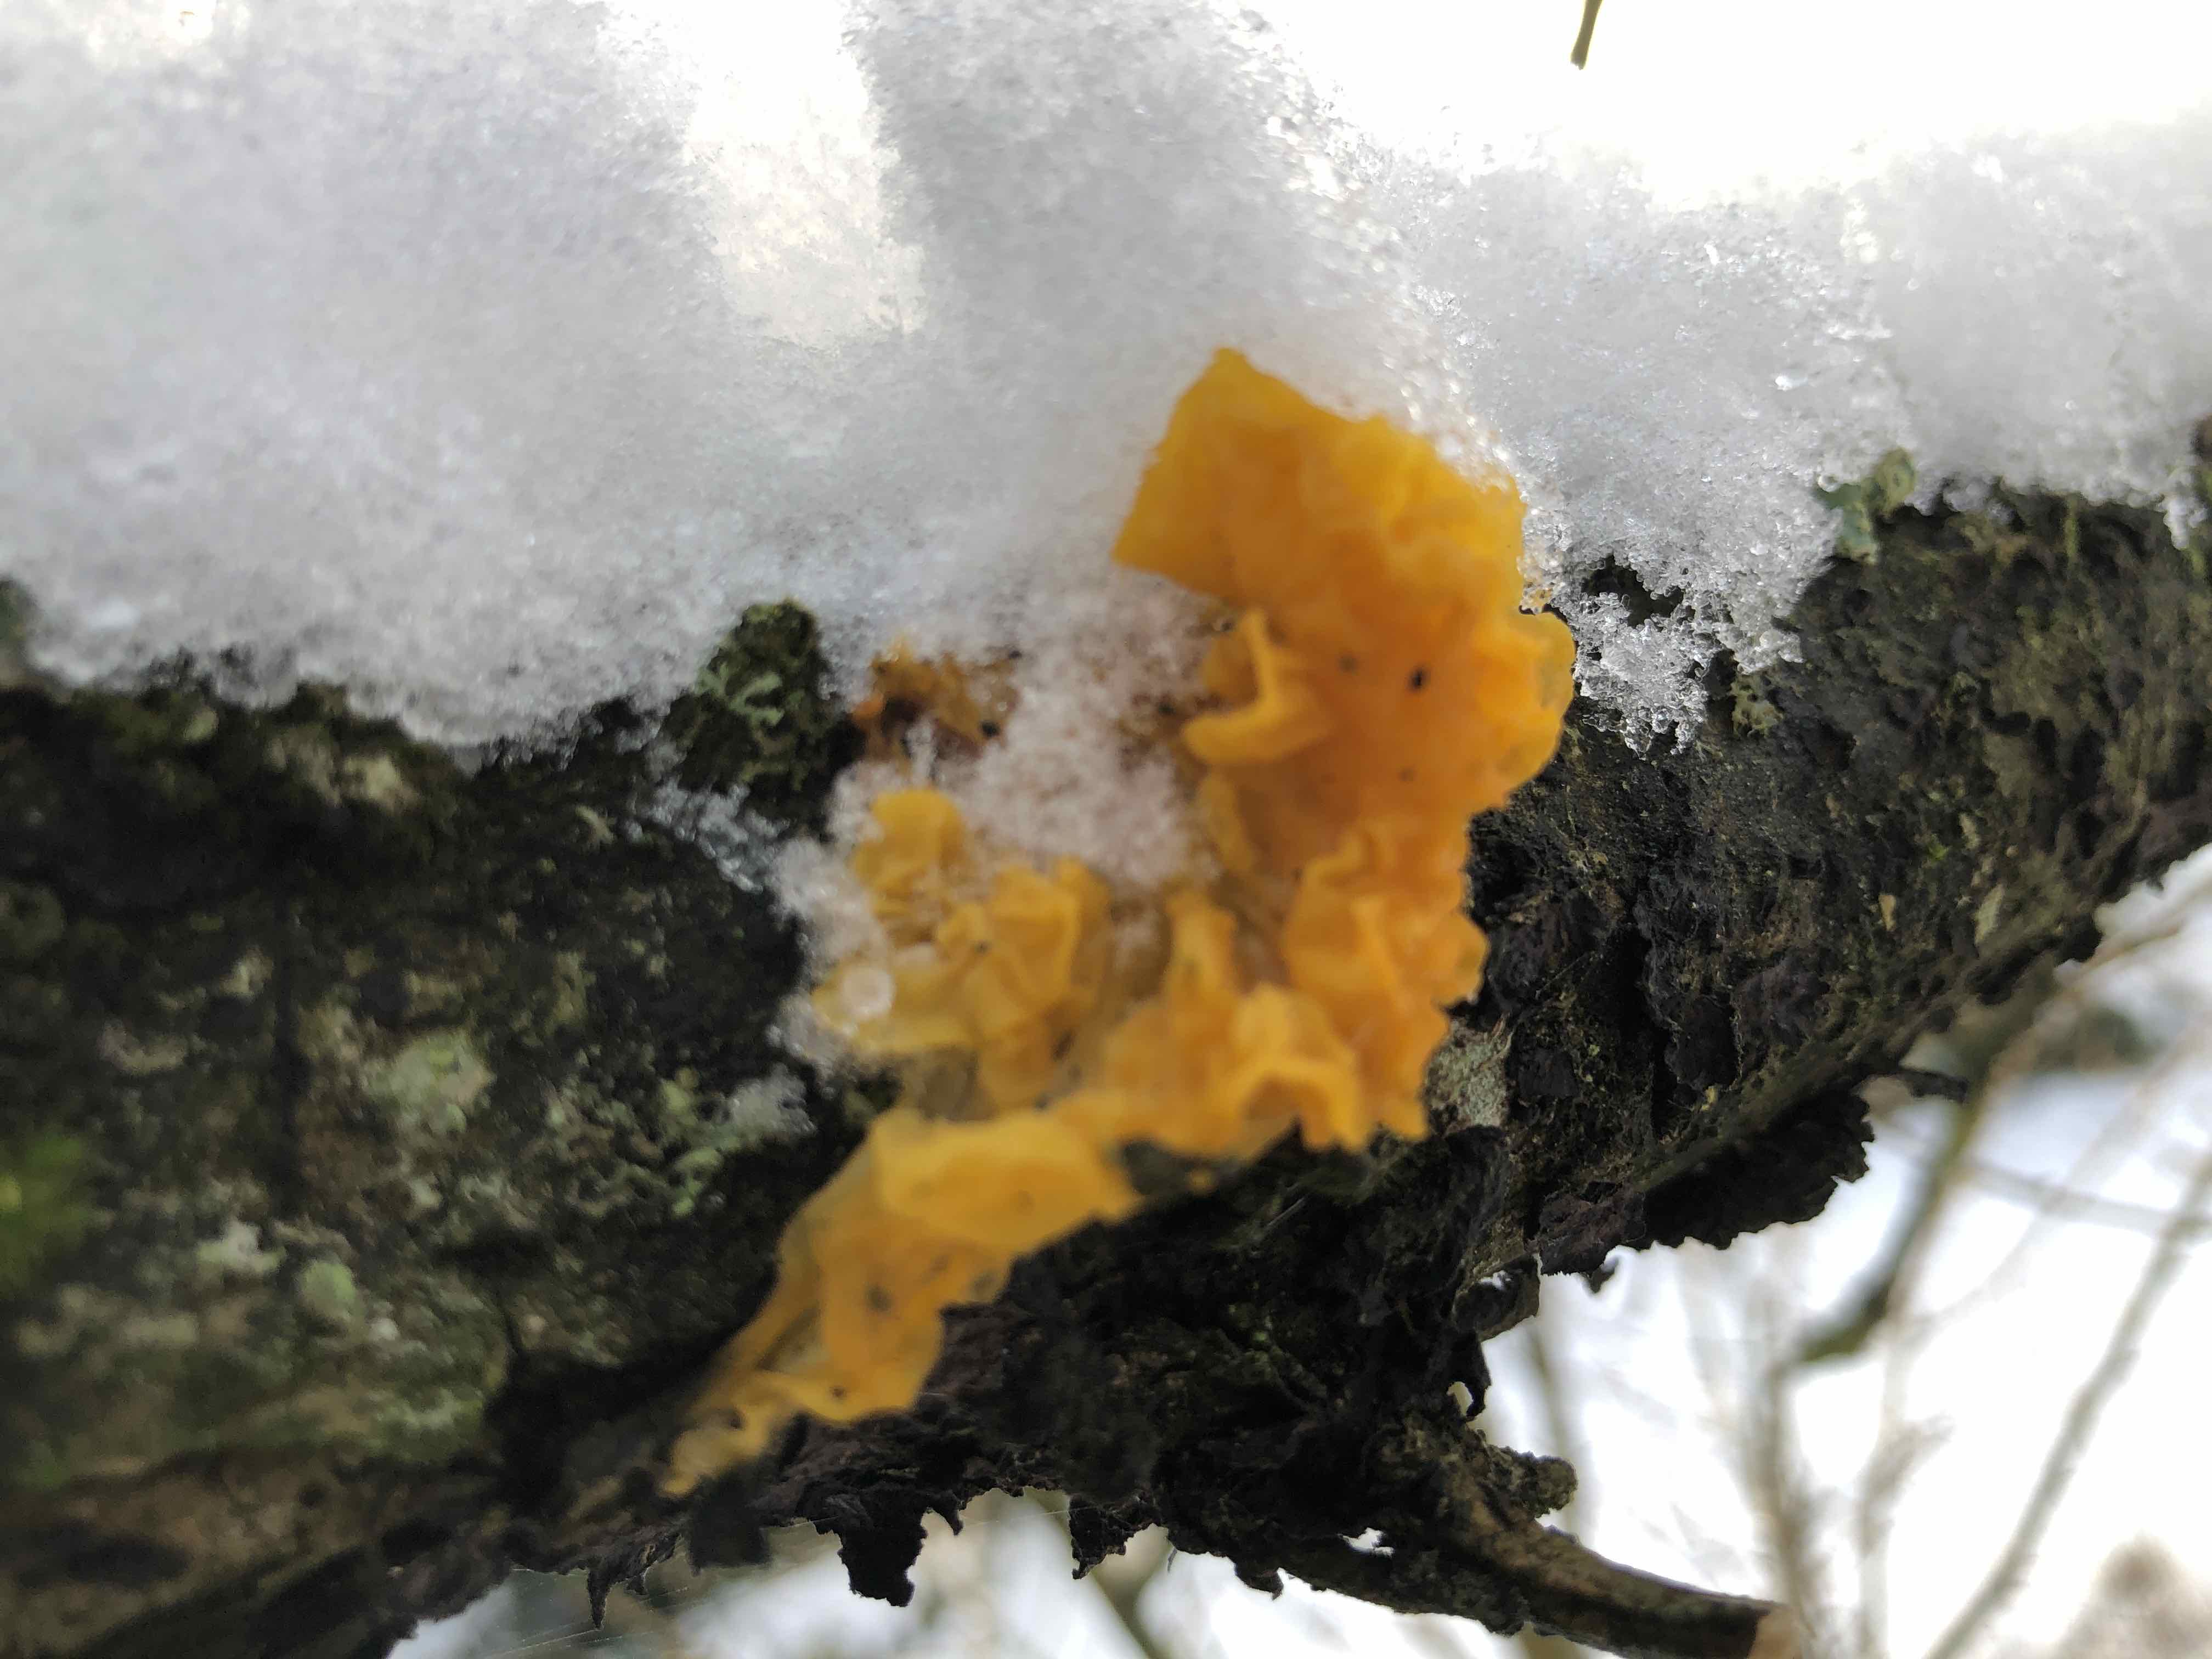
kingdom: Fungi
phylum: Basidiomycota
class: Tremellomycetes
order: Tremellales
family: Tremellaceae
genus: Tremella
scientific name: Tremella mesenterica
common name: gul bævresvamp
